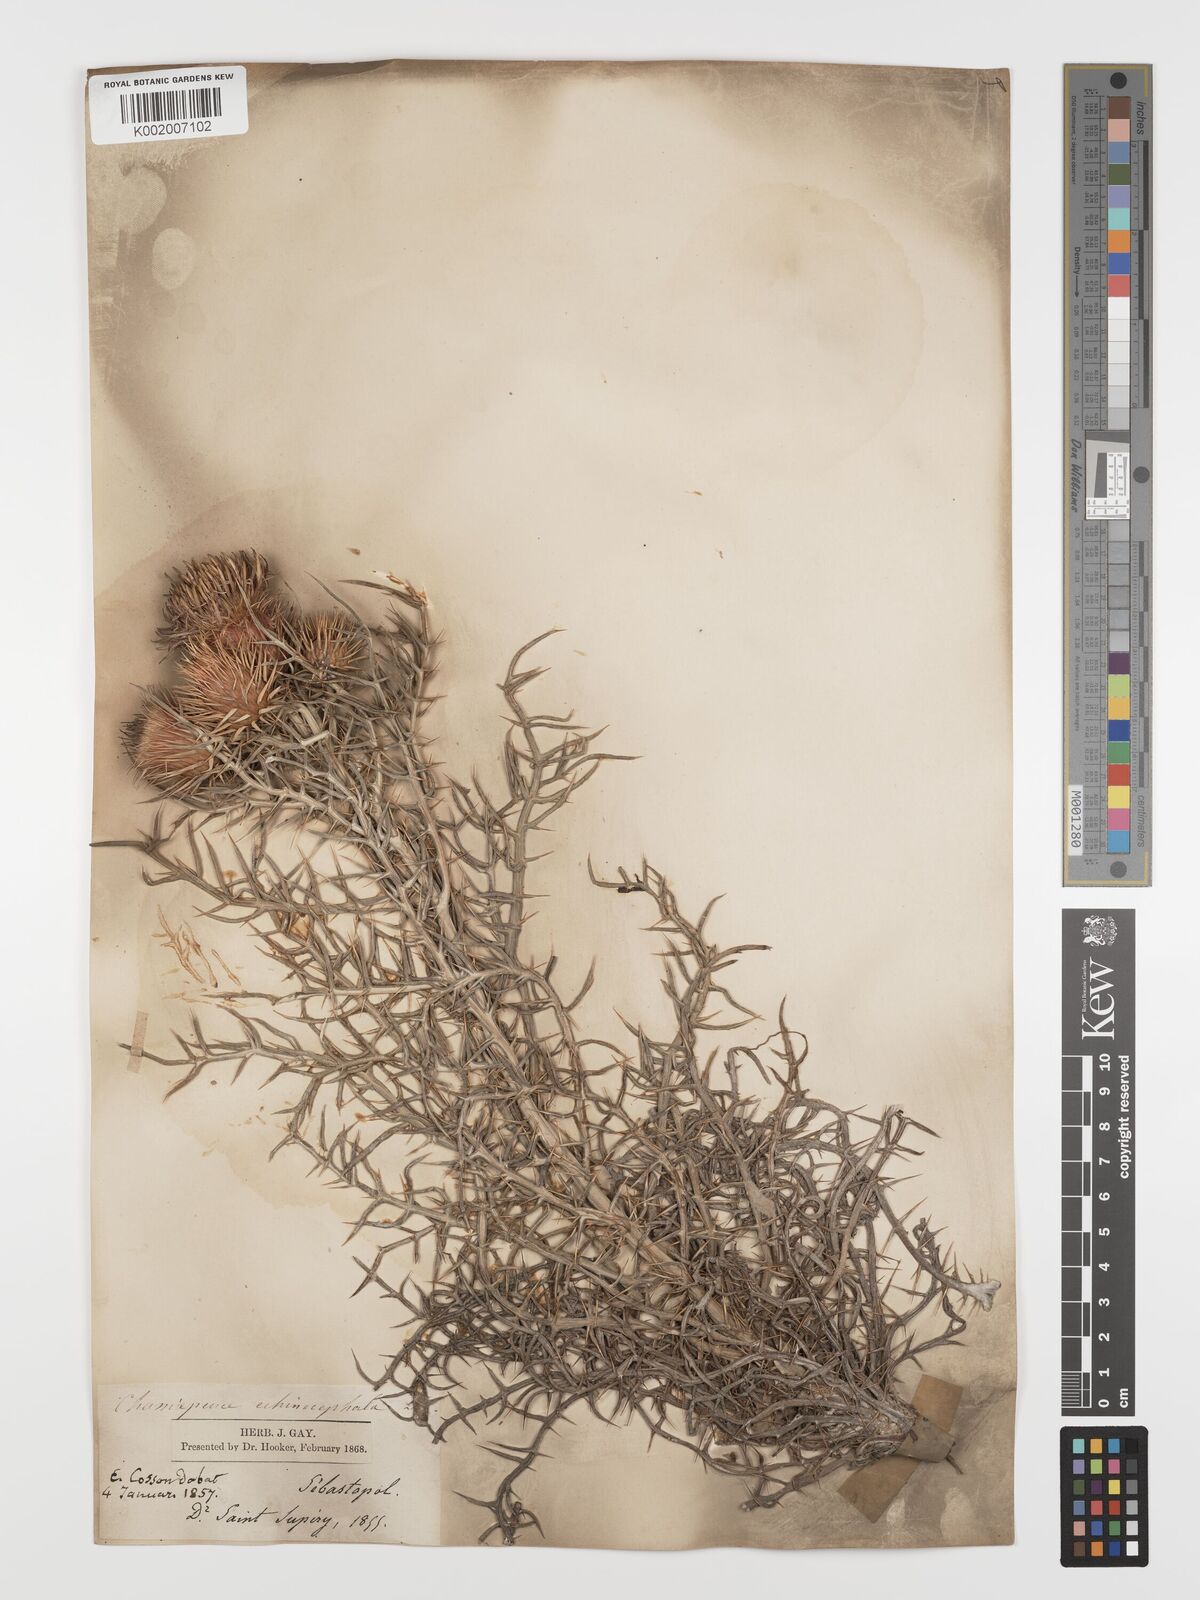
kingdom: Plantae
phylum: Tracheophyta
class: Magnoliopsida
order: Asterales
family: Asteraceae
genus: Ptilostemon
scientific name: Ptilostemon echinocephalus
